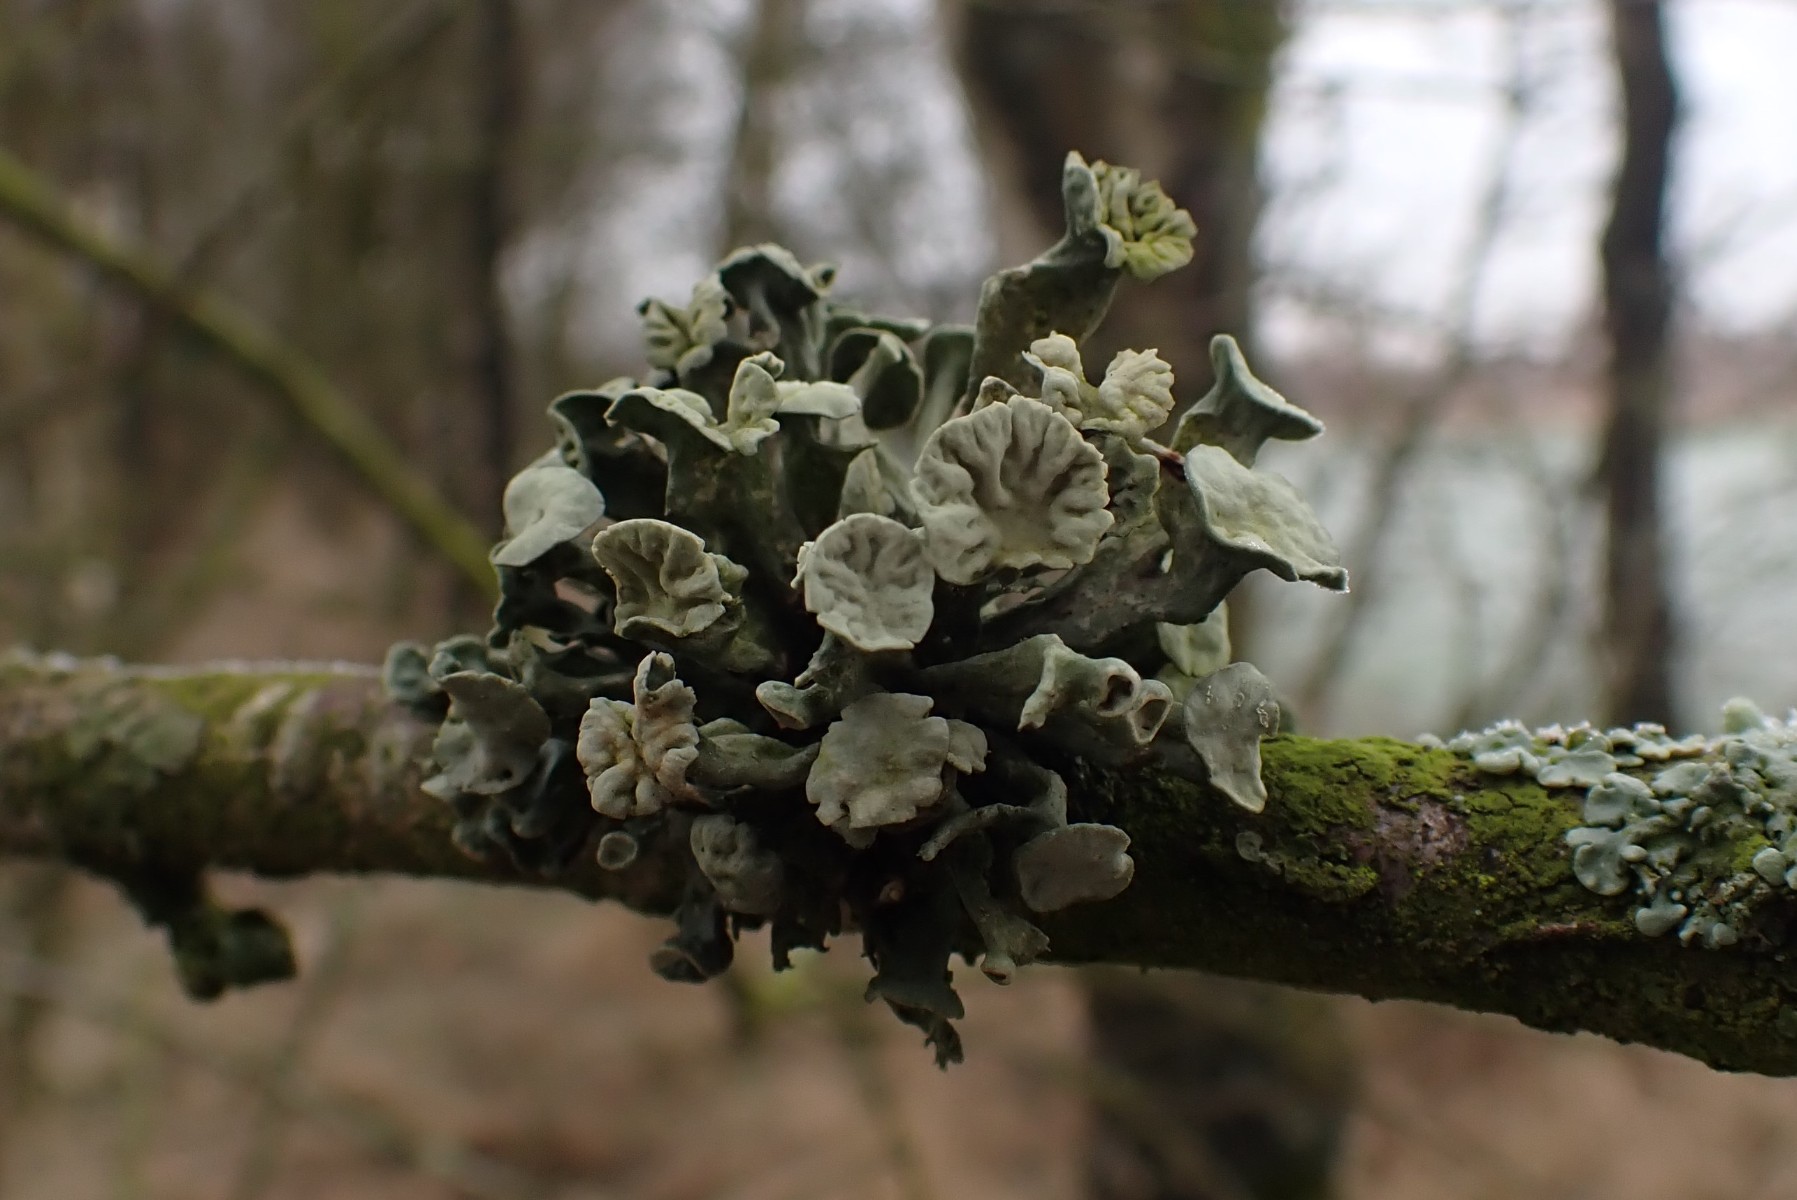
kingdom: Fungi
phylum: Ascomycota
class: Lecanoromycetes
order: Lecanorales
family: Ramalinaceae
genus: Ramalina
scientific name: Ramalina fastigiata
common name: tue-grenlav
